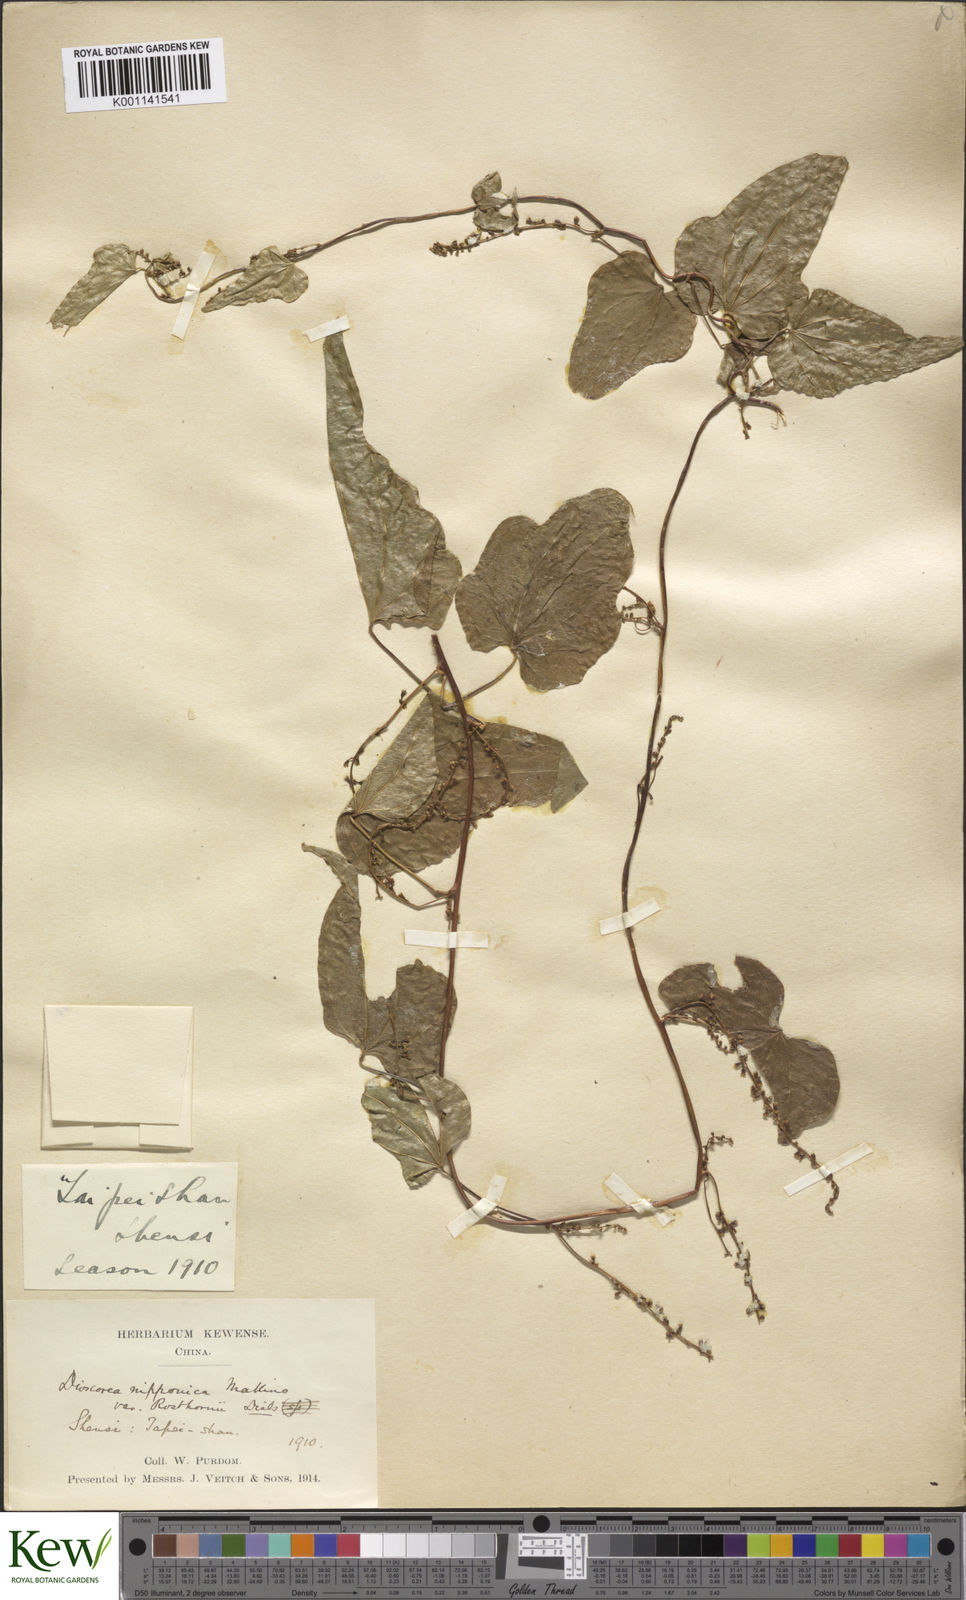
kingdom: Plantae
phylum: Tracheophyta
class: Liliopsida
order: Dioscoreales
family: Dioscoreaceae
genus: Dioscorea
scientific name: Dioscorea nipponica
